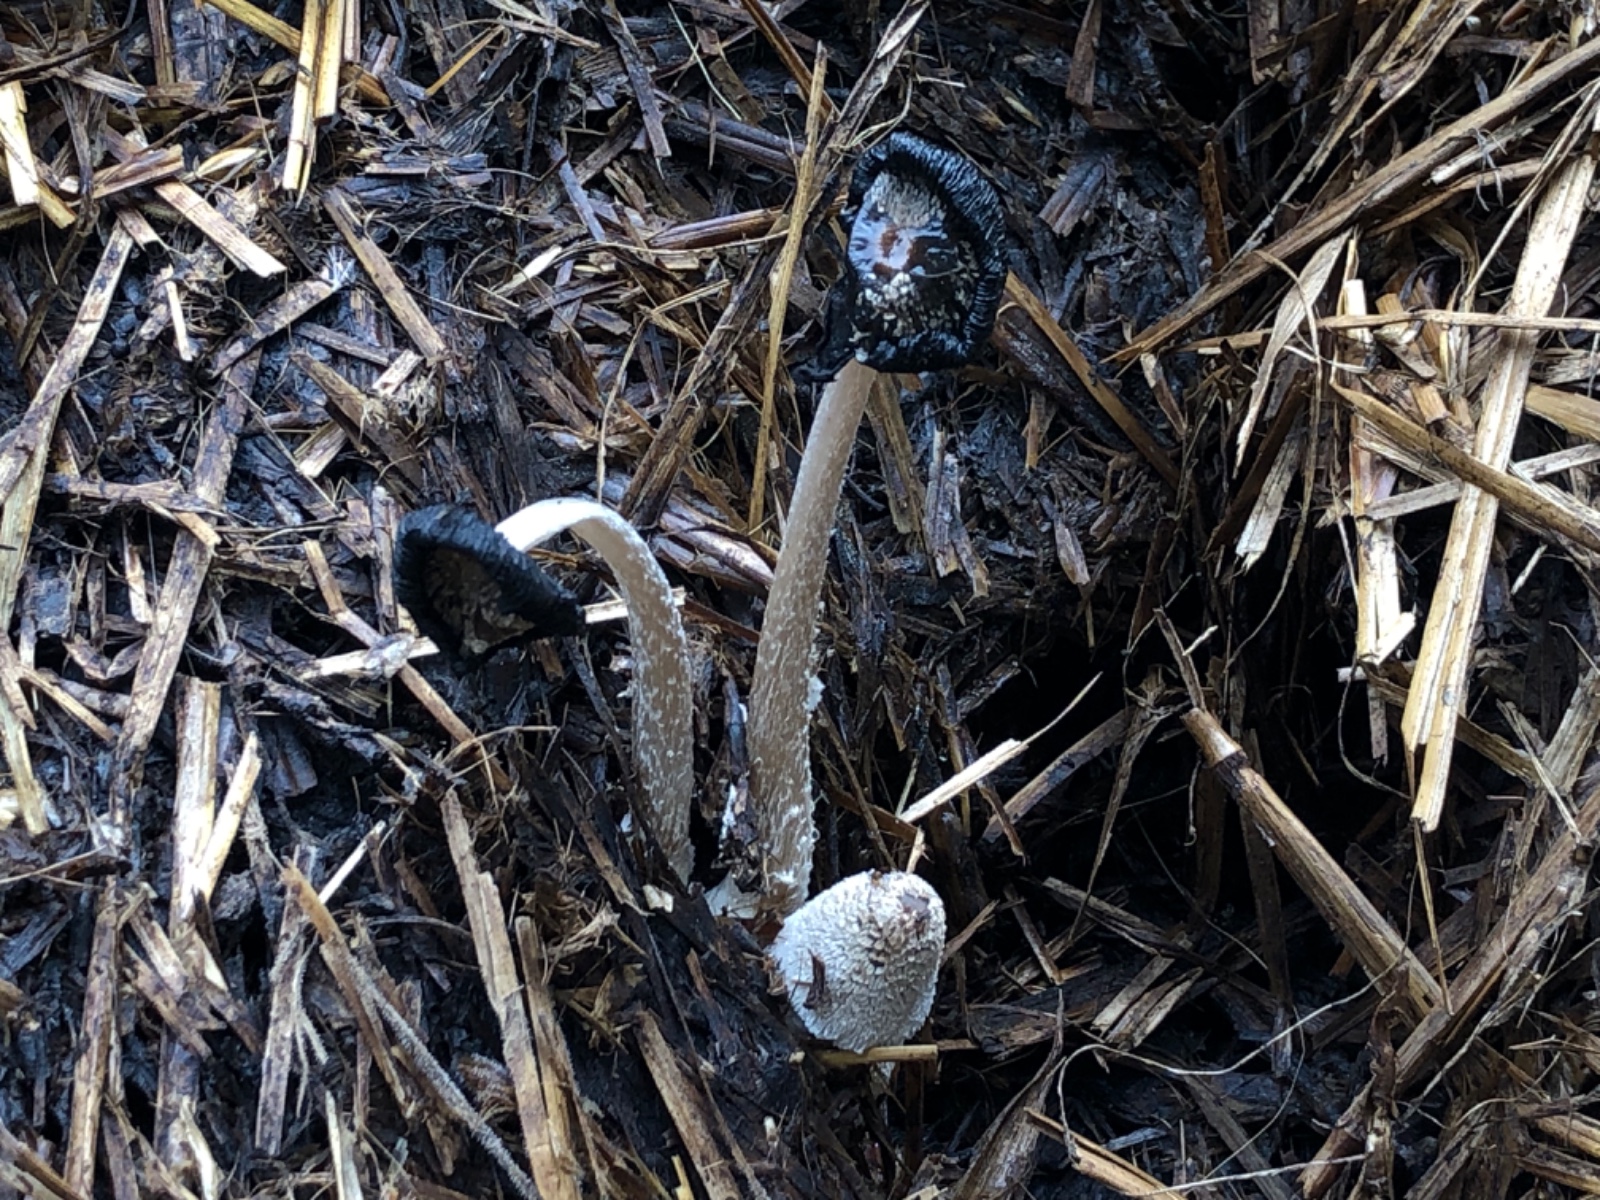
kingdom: Fungi
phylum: Basidiomycota
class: Agaricomycetes
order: Agaricales
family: Psathyrellaceae
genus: Coprinopsis
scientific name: Coprinopsis
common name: blækhat
